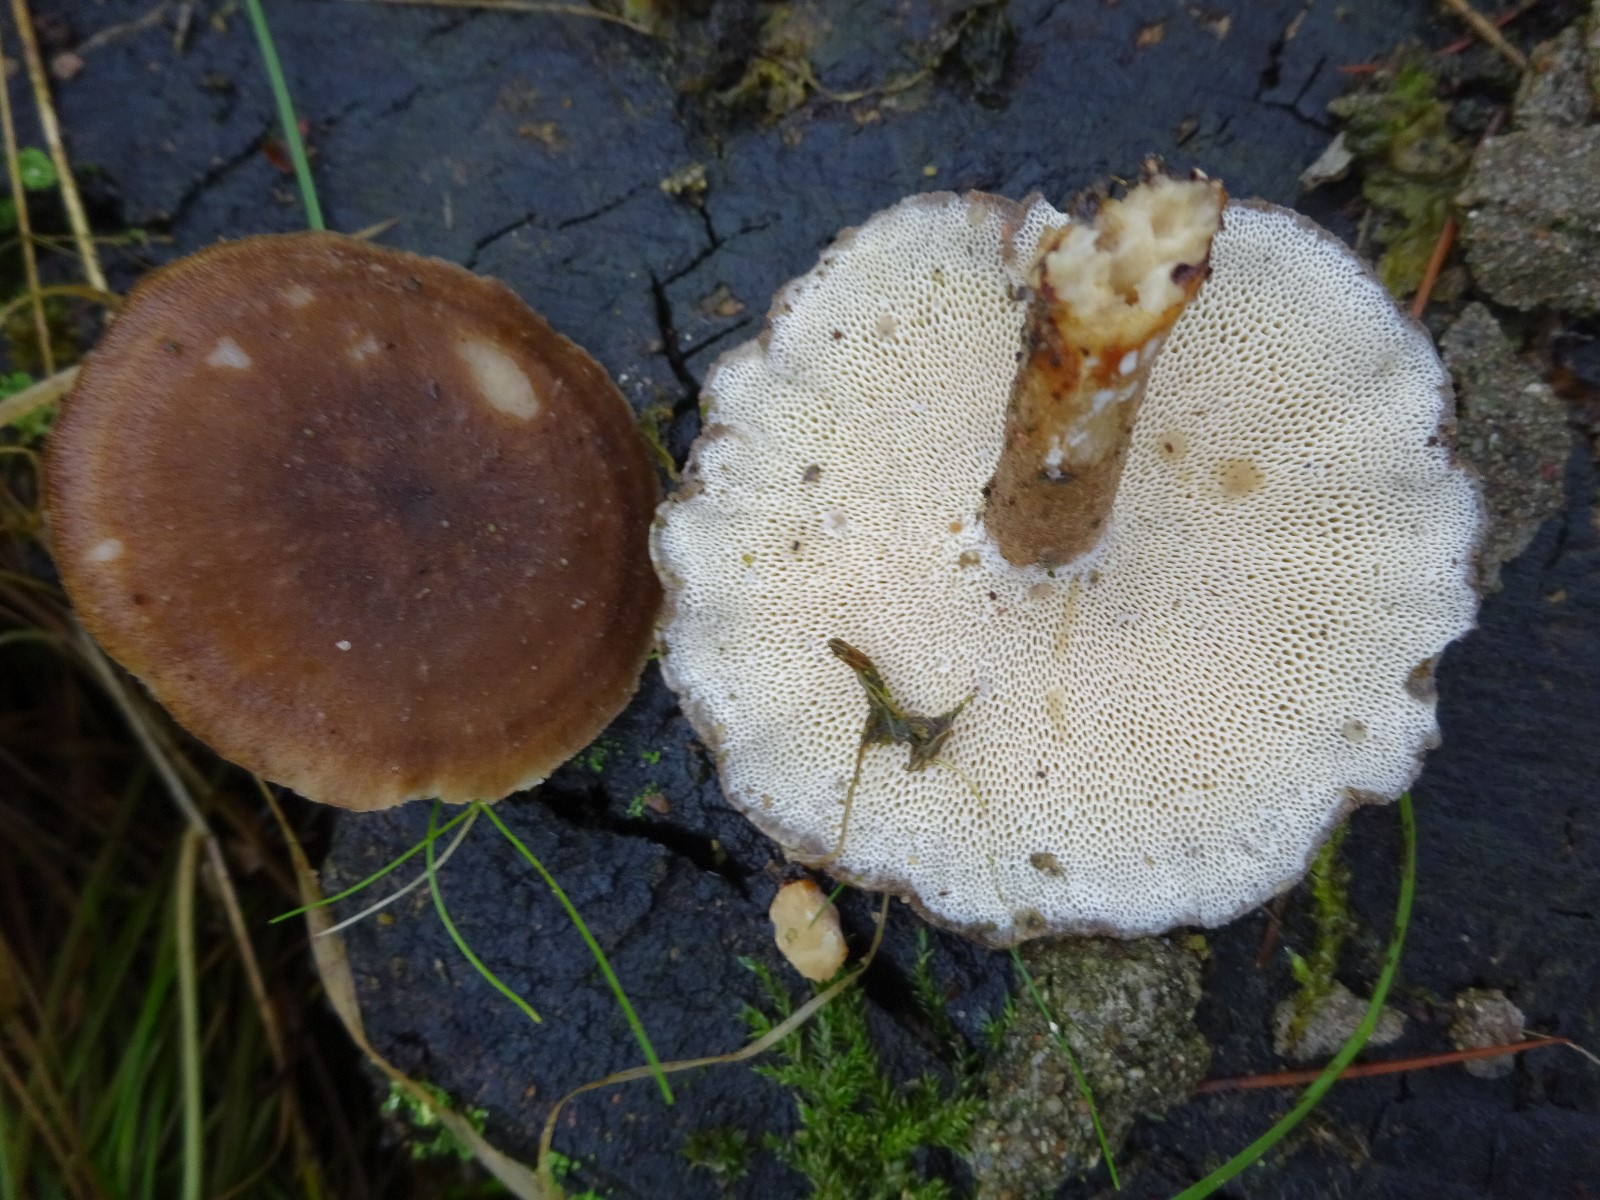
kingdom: Fungi
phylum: Basidiomycota
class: Agaricomycetes
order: Polyporales
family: Polyporaceae
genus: Lentinus
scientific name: Lentinus brumalis
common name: vinter-stilkporesvamp
